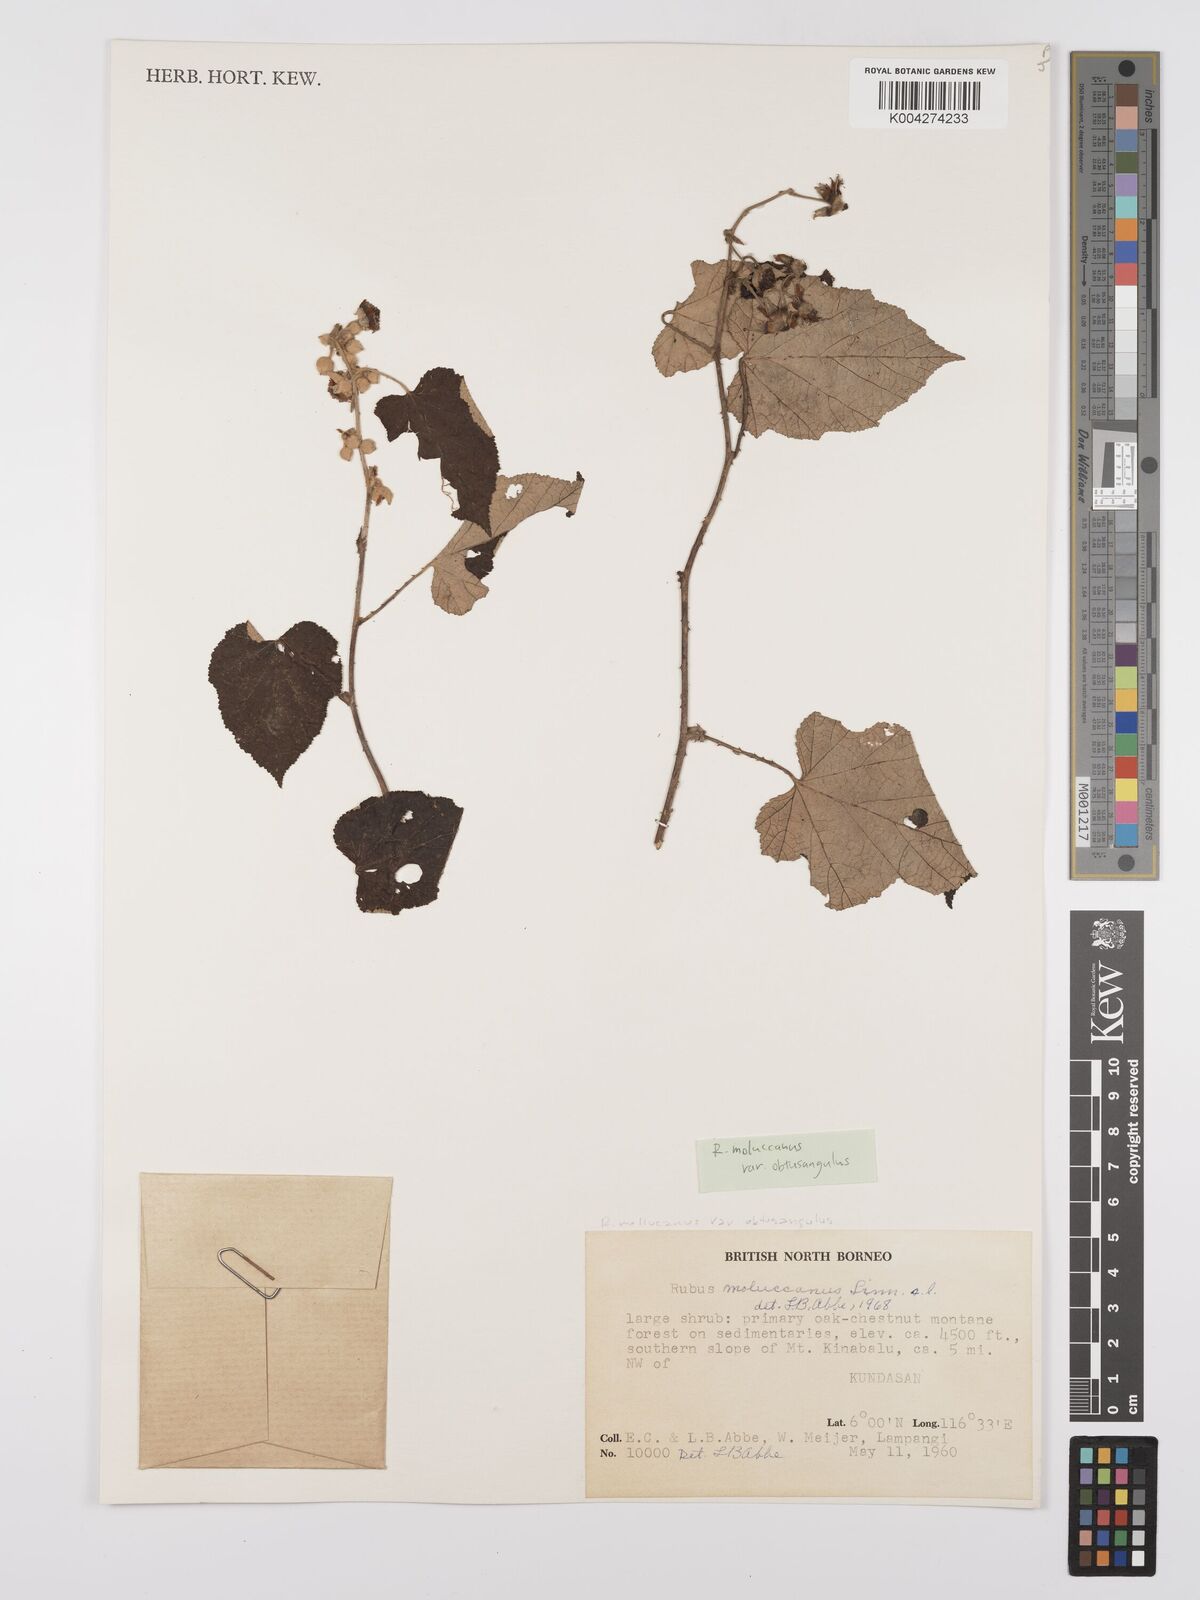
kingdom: Plantae
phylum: Tracheophyta
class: Magnoliopsida
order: Rosales
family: Rosaceae
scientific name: Rosaceae
